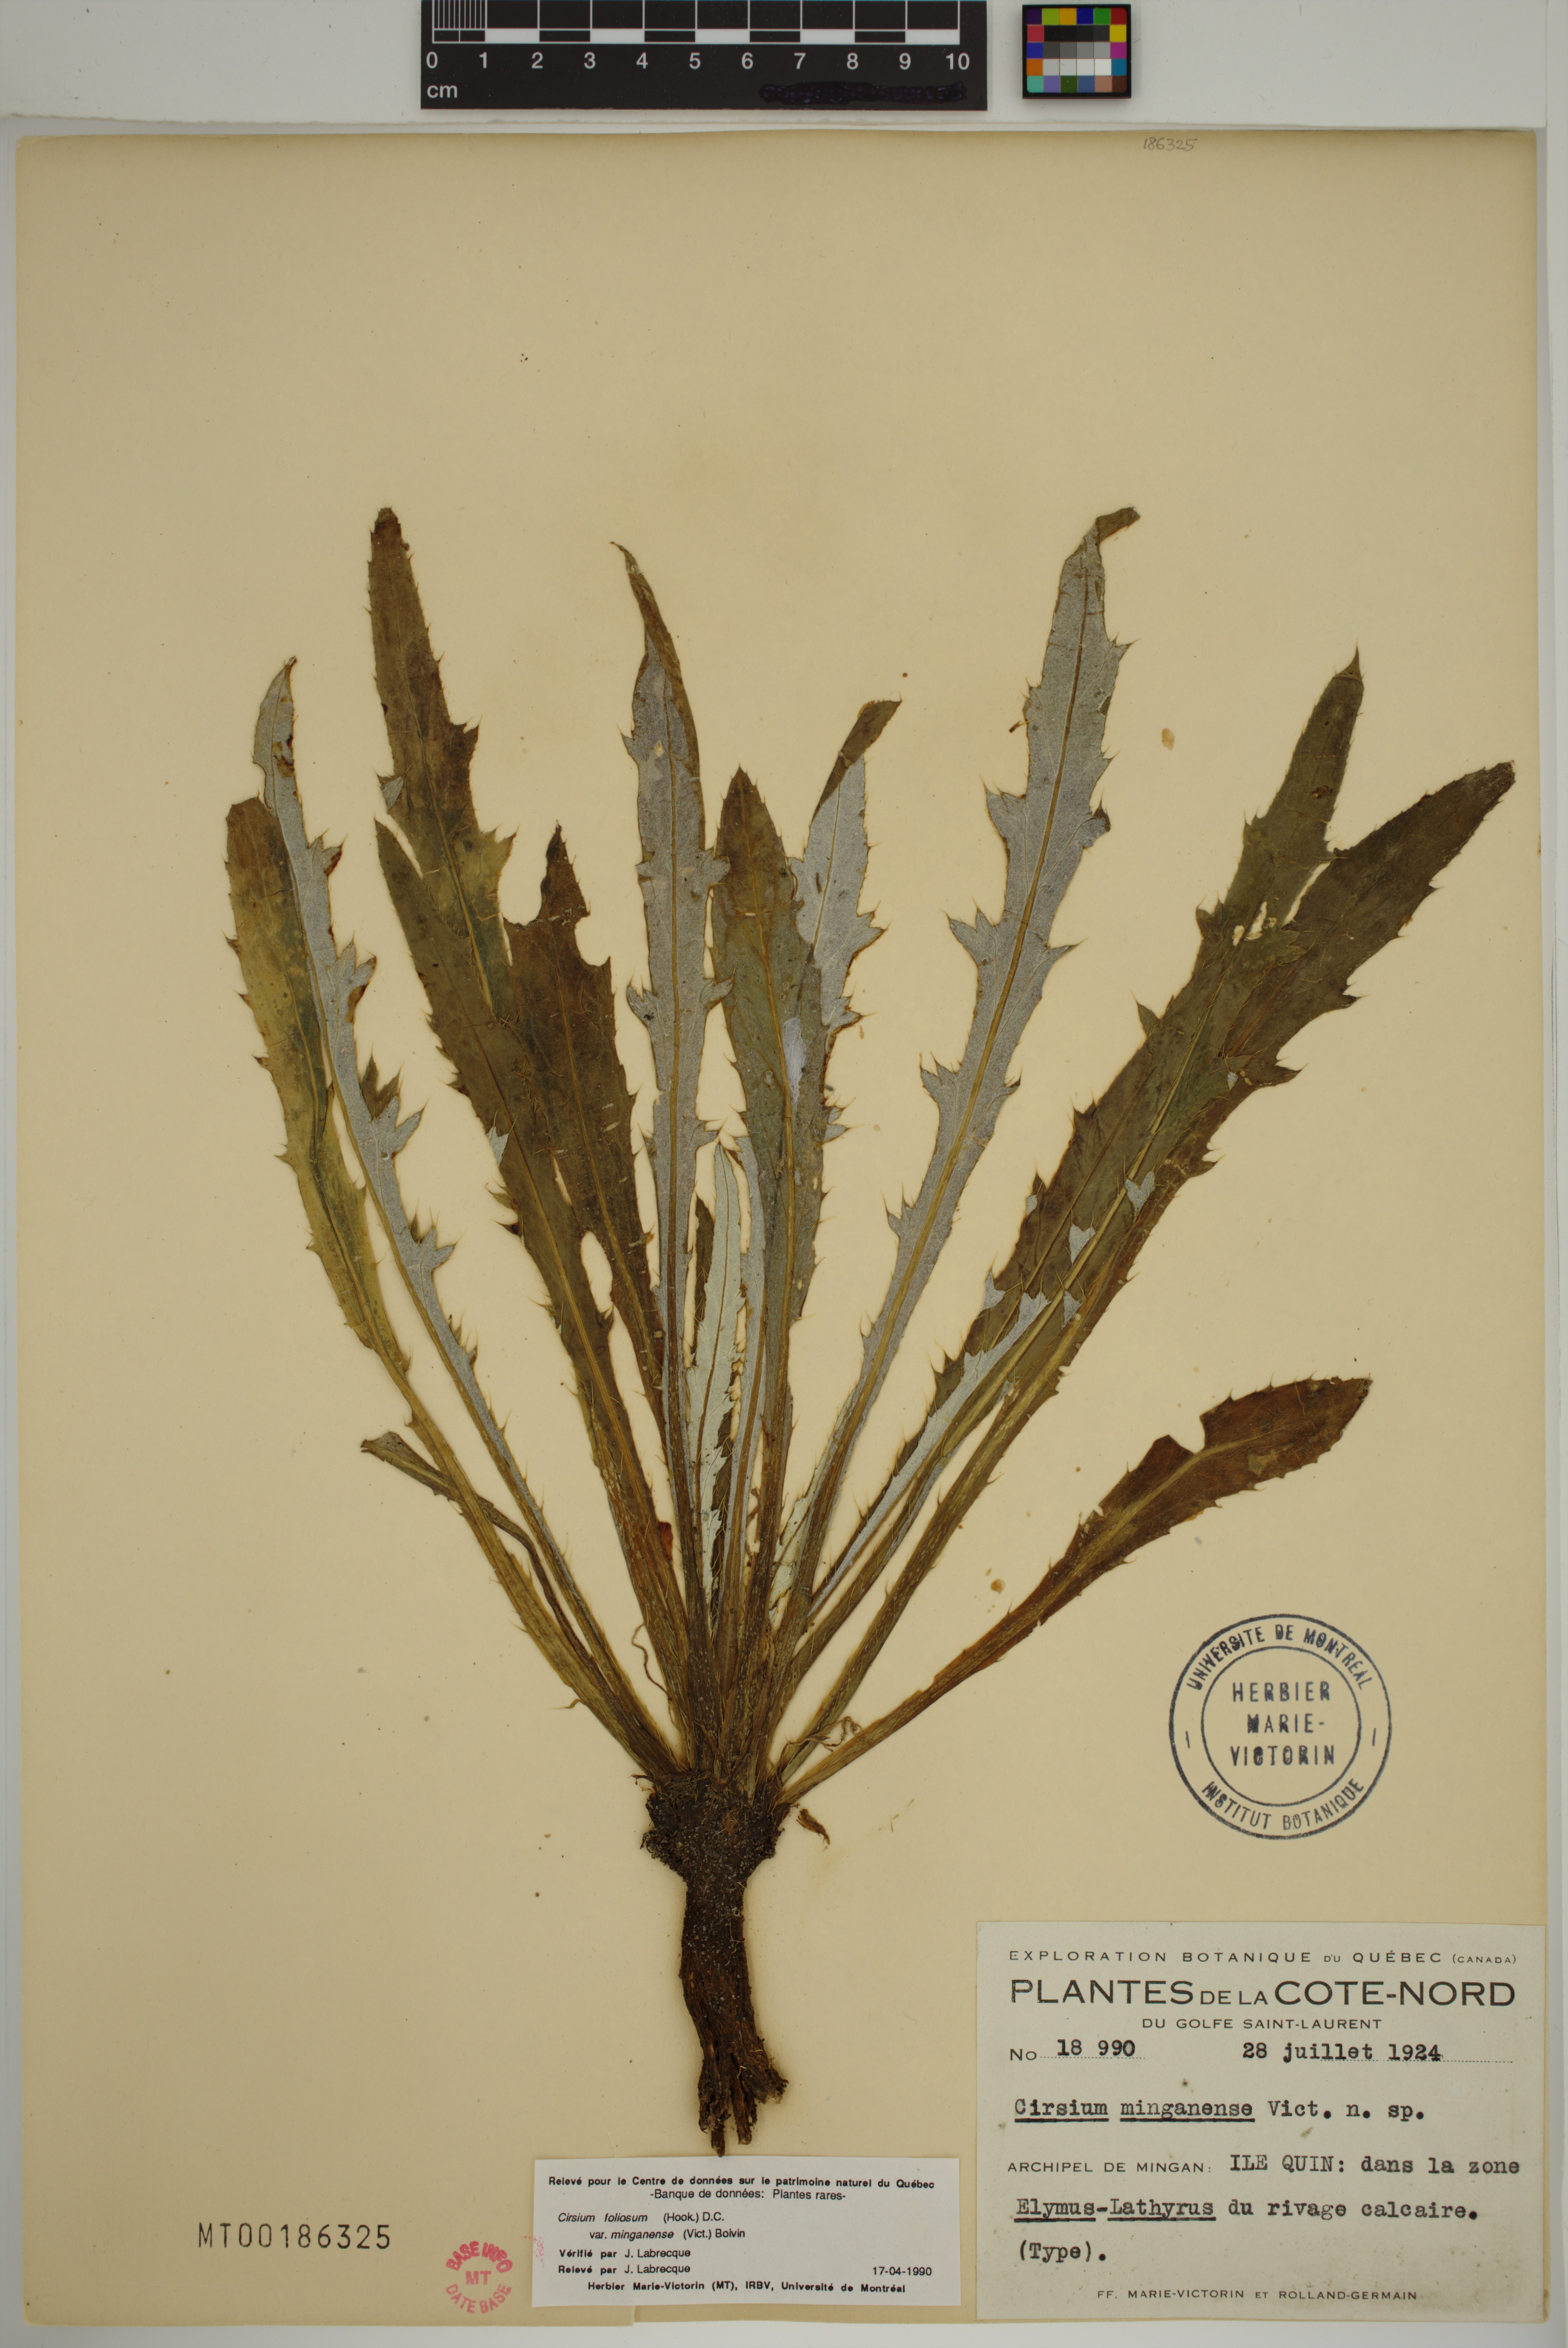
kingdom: Plantae
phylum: Tracheophyta
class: Magnoliopsida
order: Asterales
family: Asteraceae
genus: Cirsium
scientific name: Cirsium scariosum
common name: Meadow thistle
